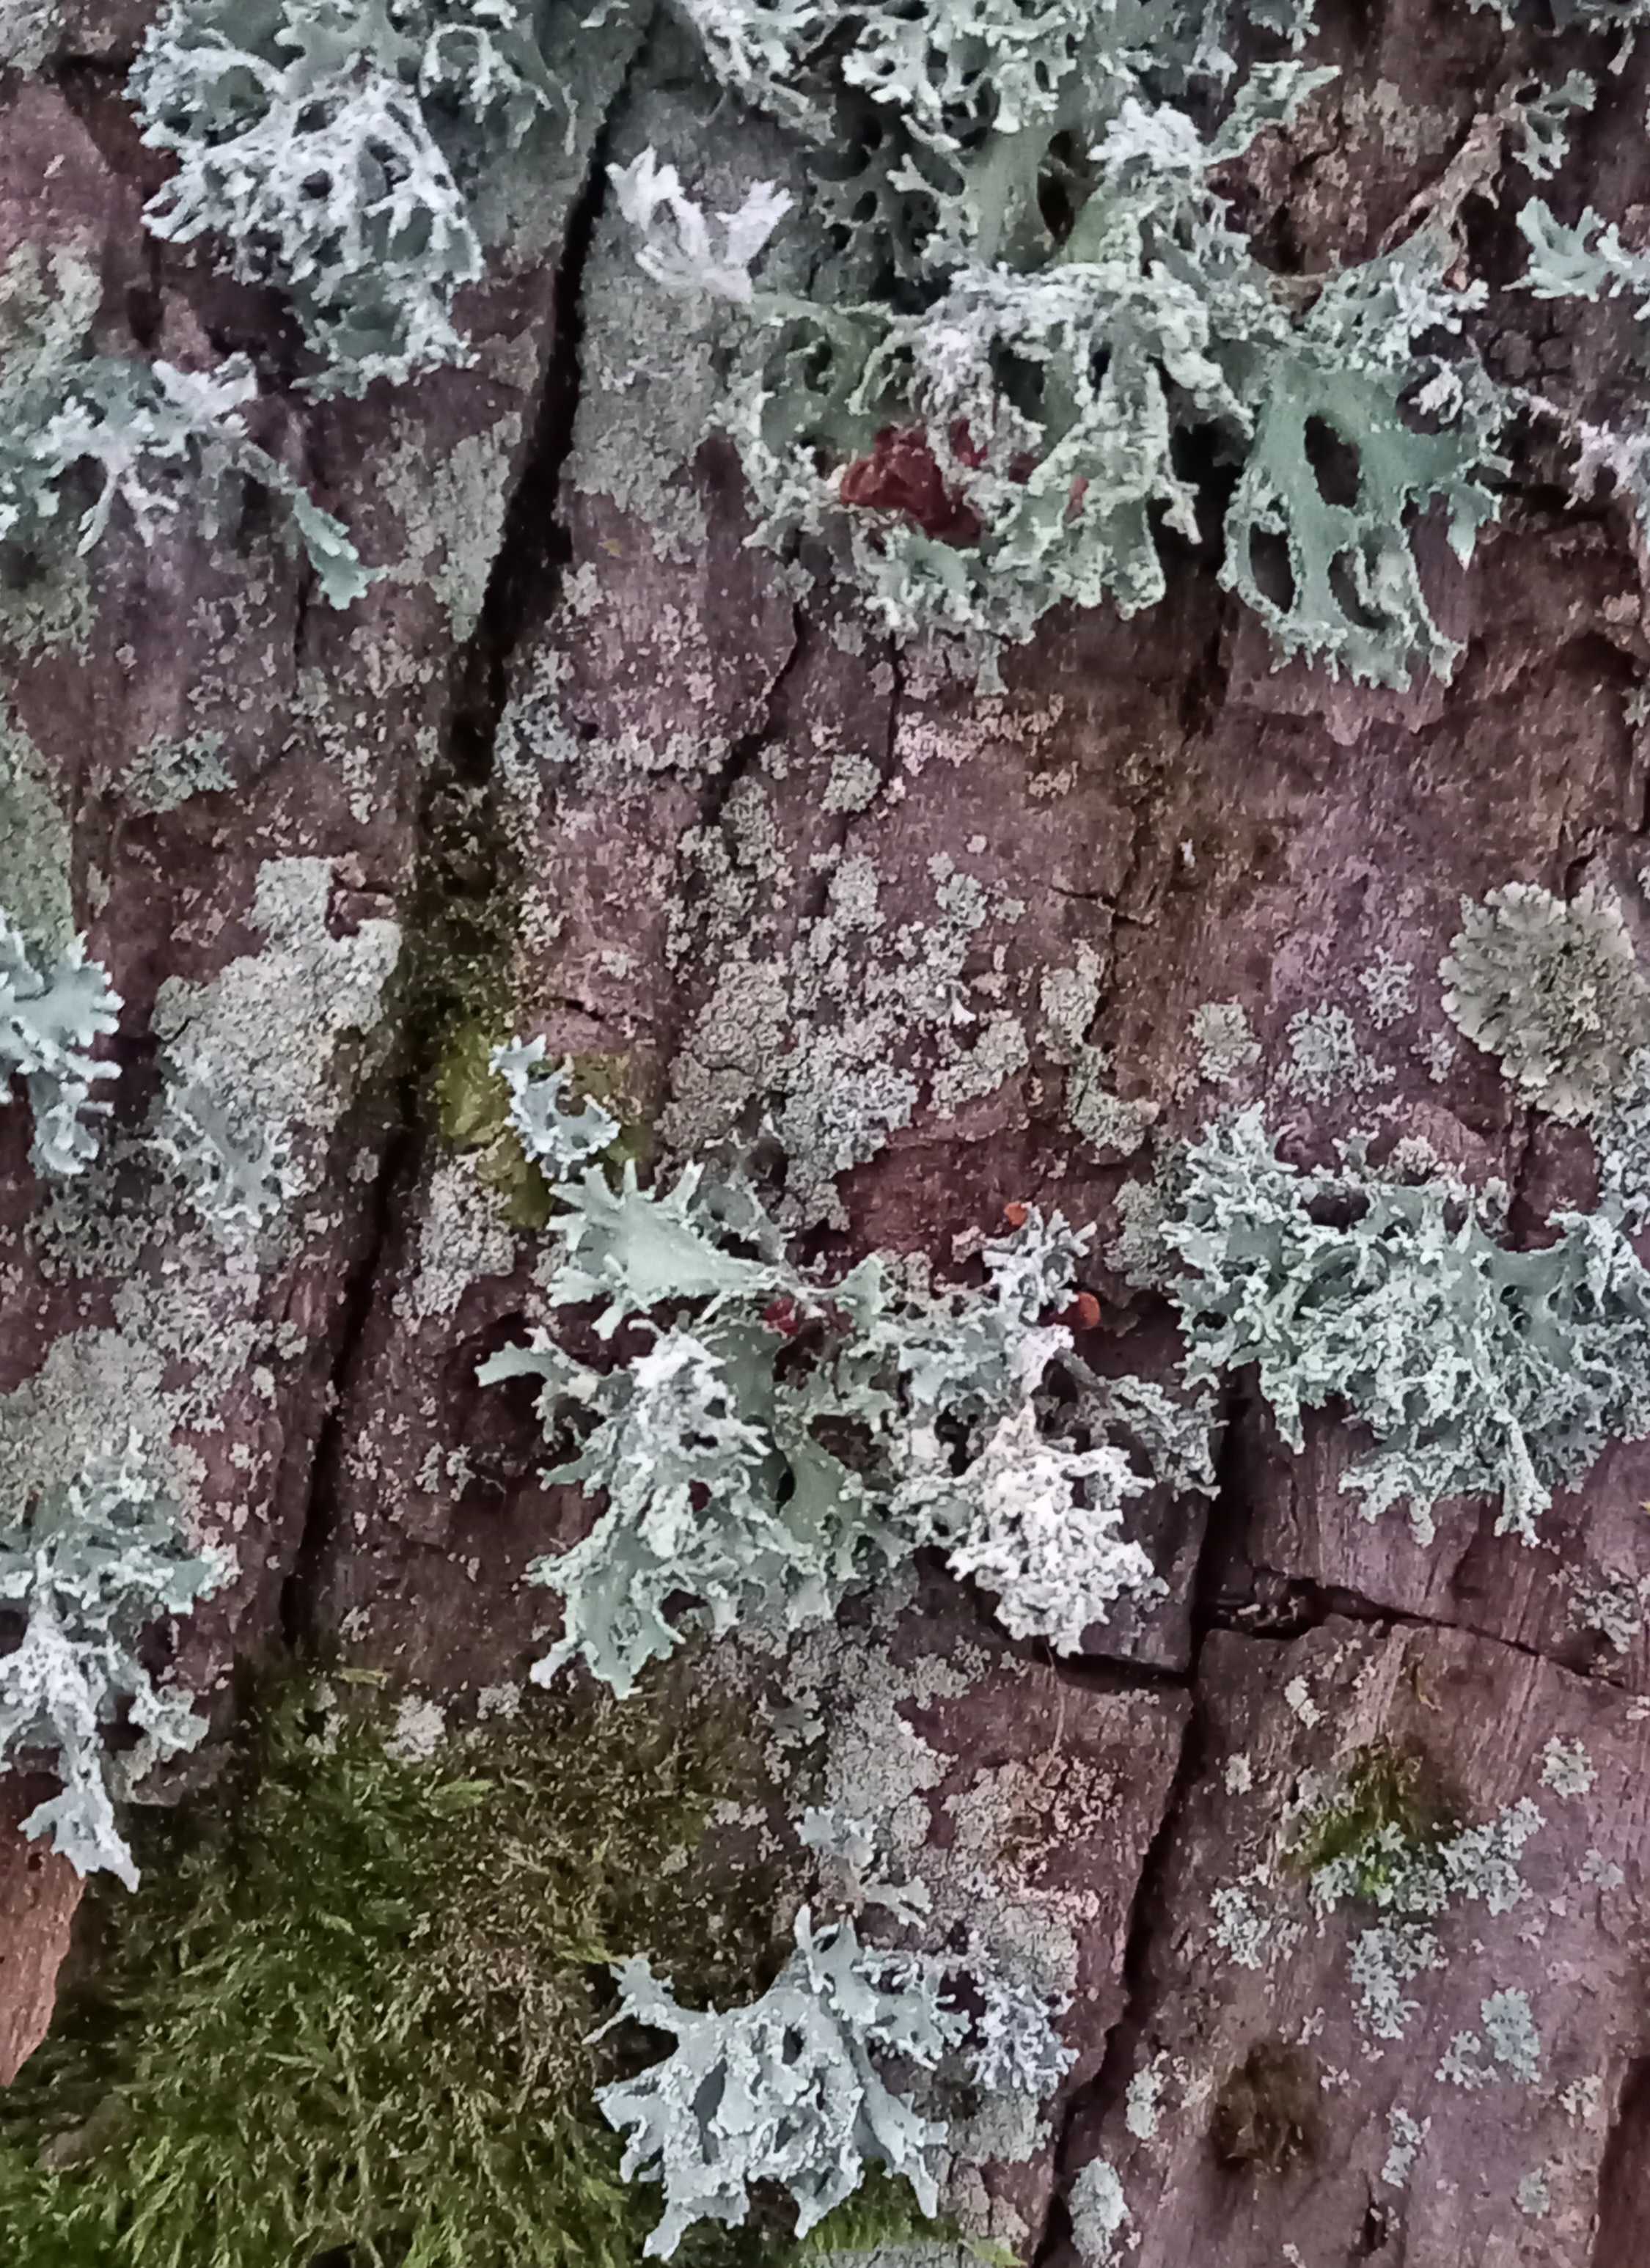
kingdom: Fungi
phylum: Ascomycota
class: Lecanoromycetes
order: Lecanorales
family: Parmeliaceae
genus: Evernia
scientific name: Evernia prunastri
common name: almindelig slåenlav
